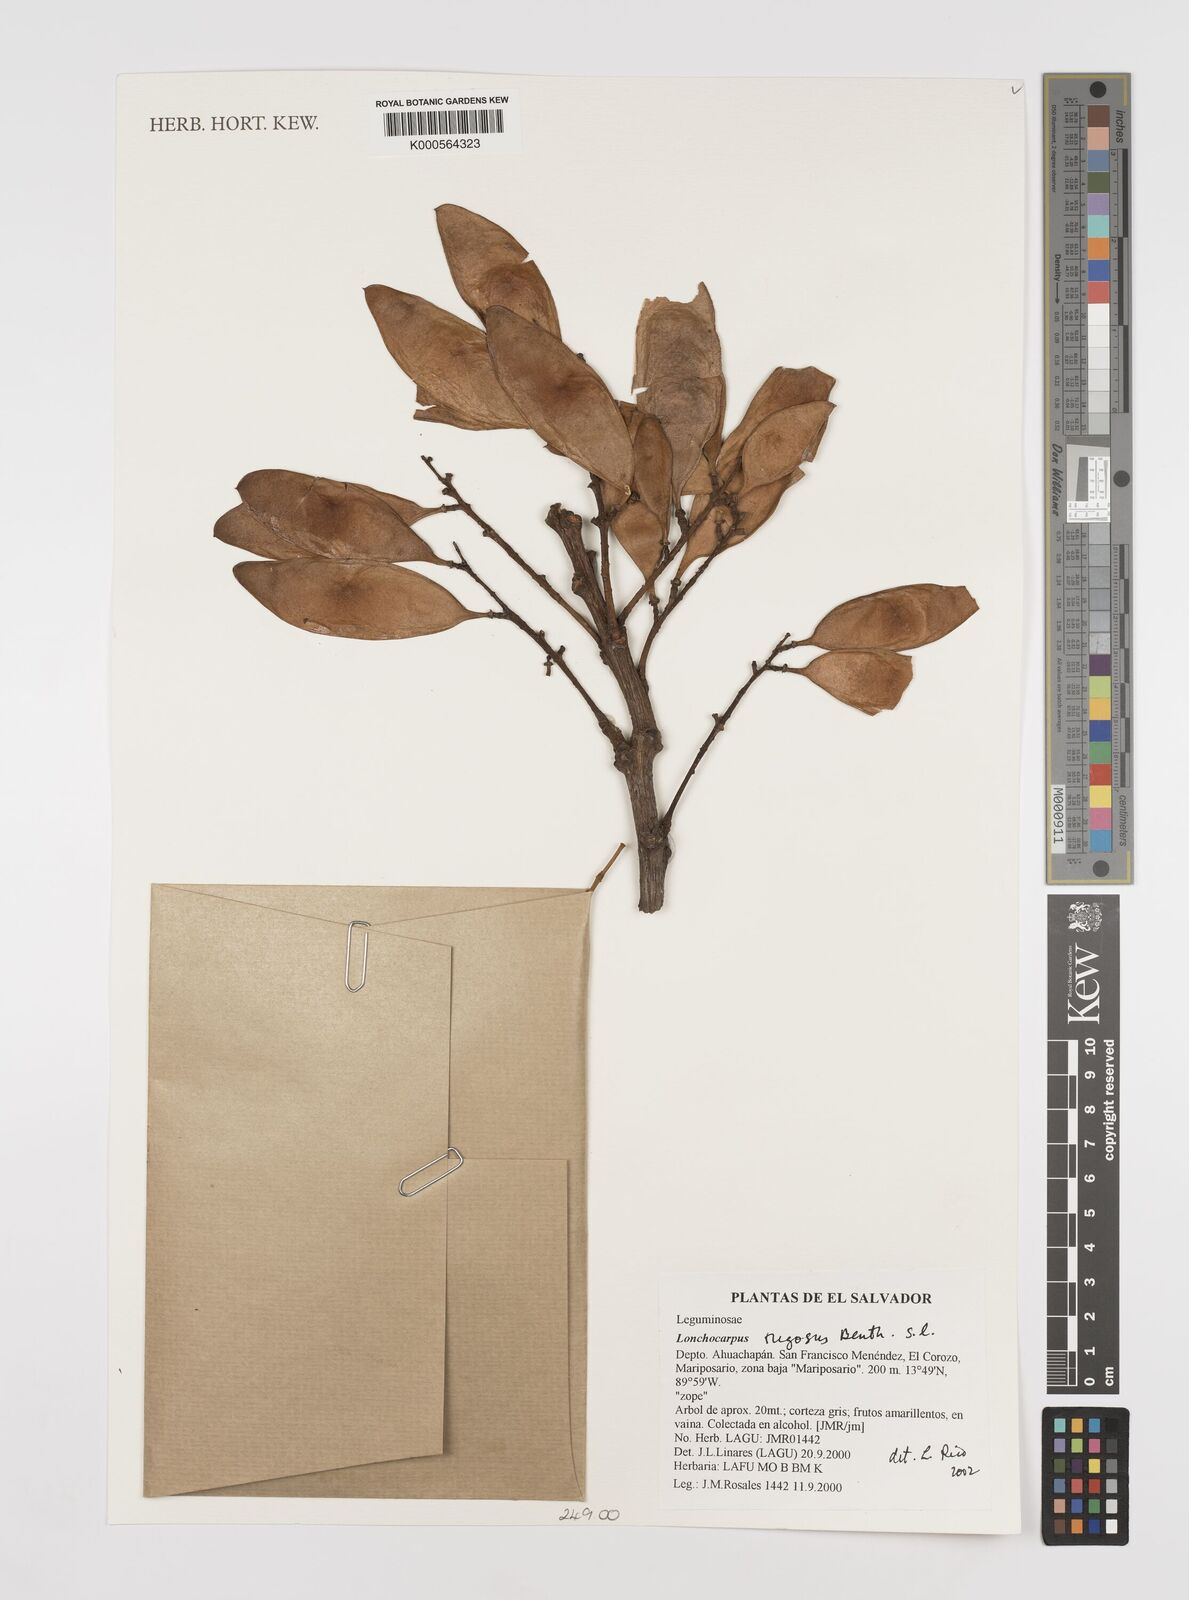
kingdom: Plantae
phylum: Tracheophyta
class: Magnoliopsida
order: Fabales
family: Fabaceae
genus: Lonchocarpus
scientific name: Lonchocarpus rugosus
